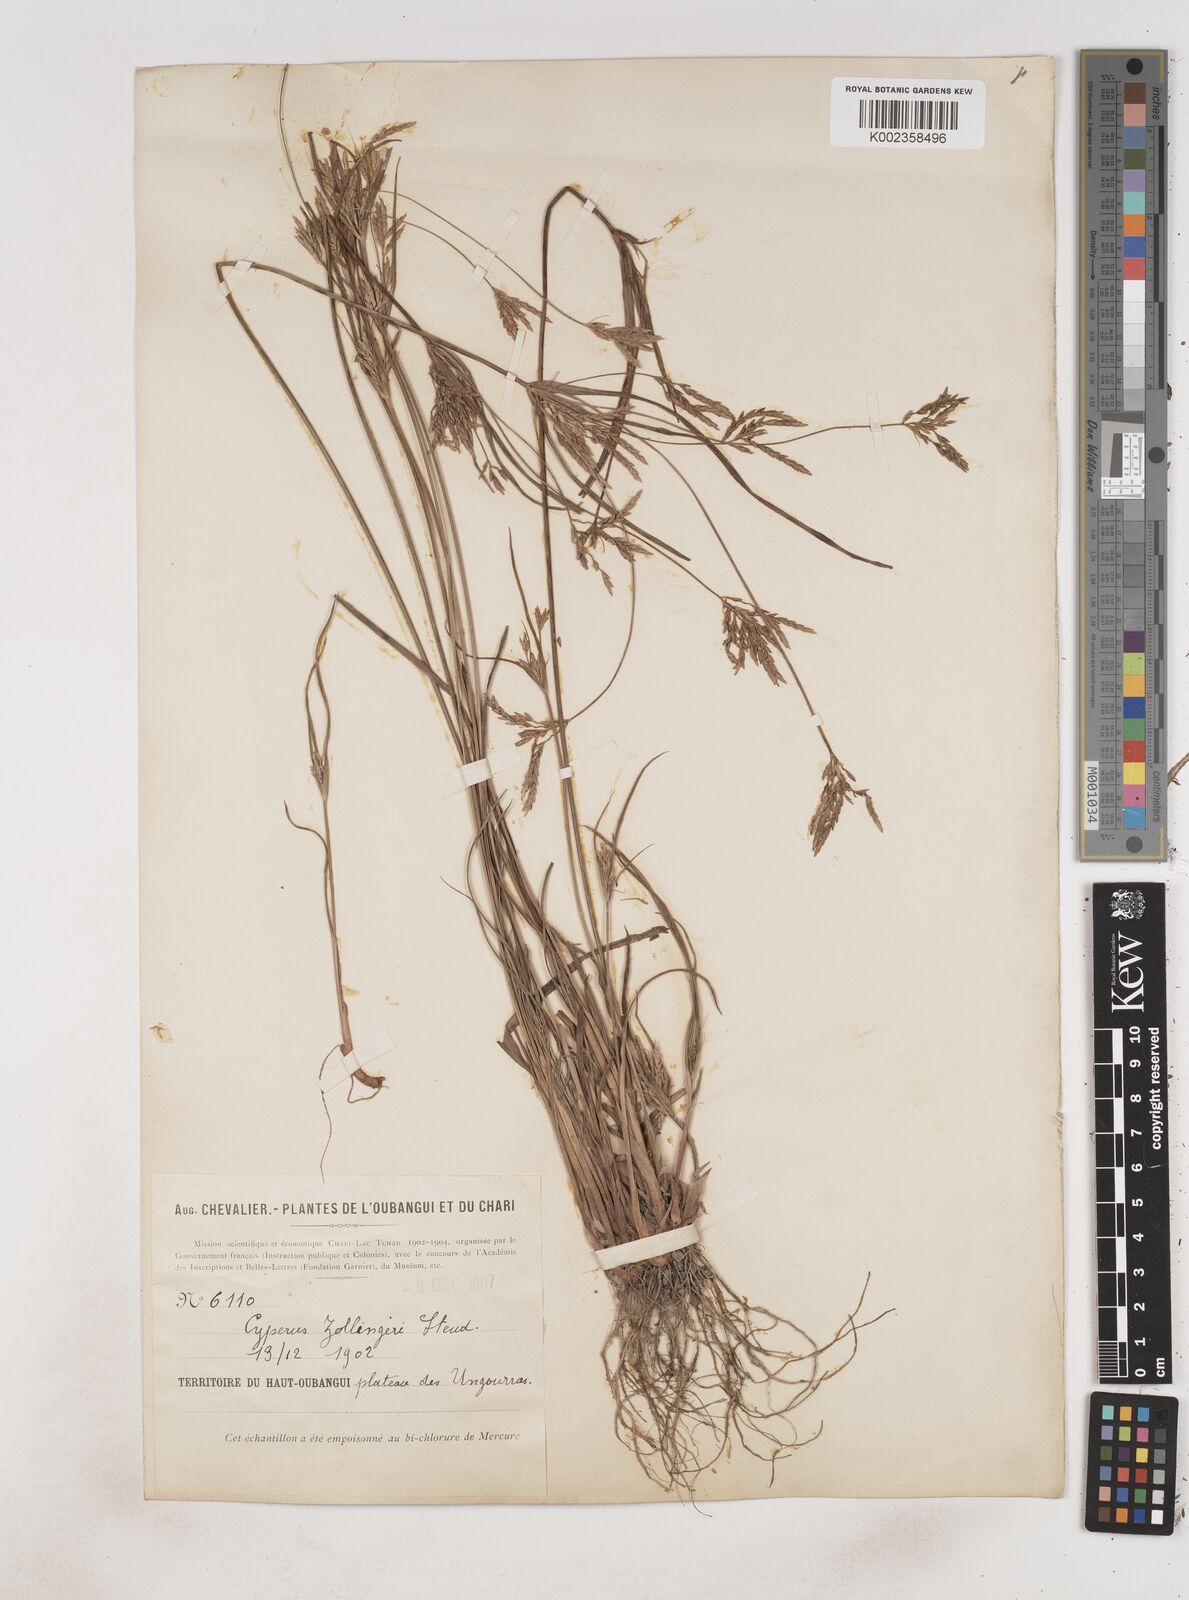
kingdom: Plantae
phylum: Tracheophyta
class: Liliopsida
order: Poales
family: Cyperaceae
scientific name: Cyperaceae
